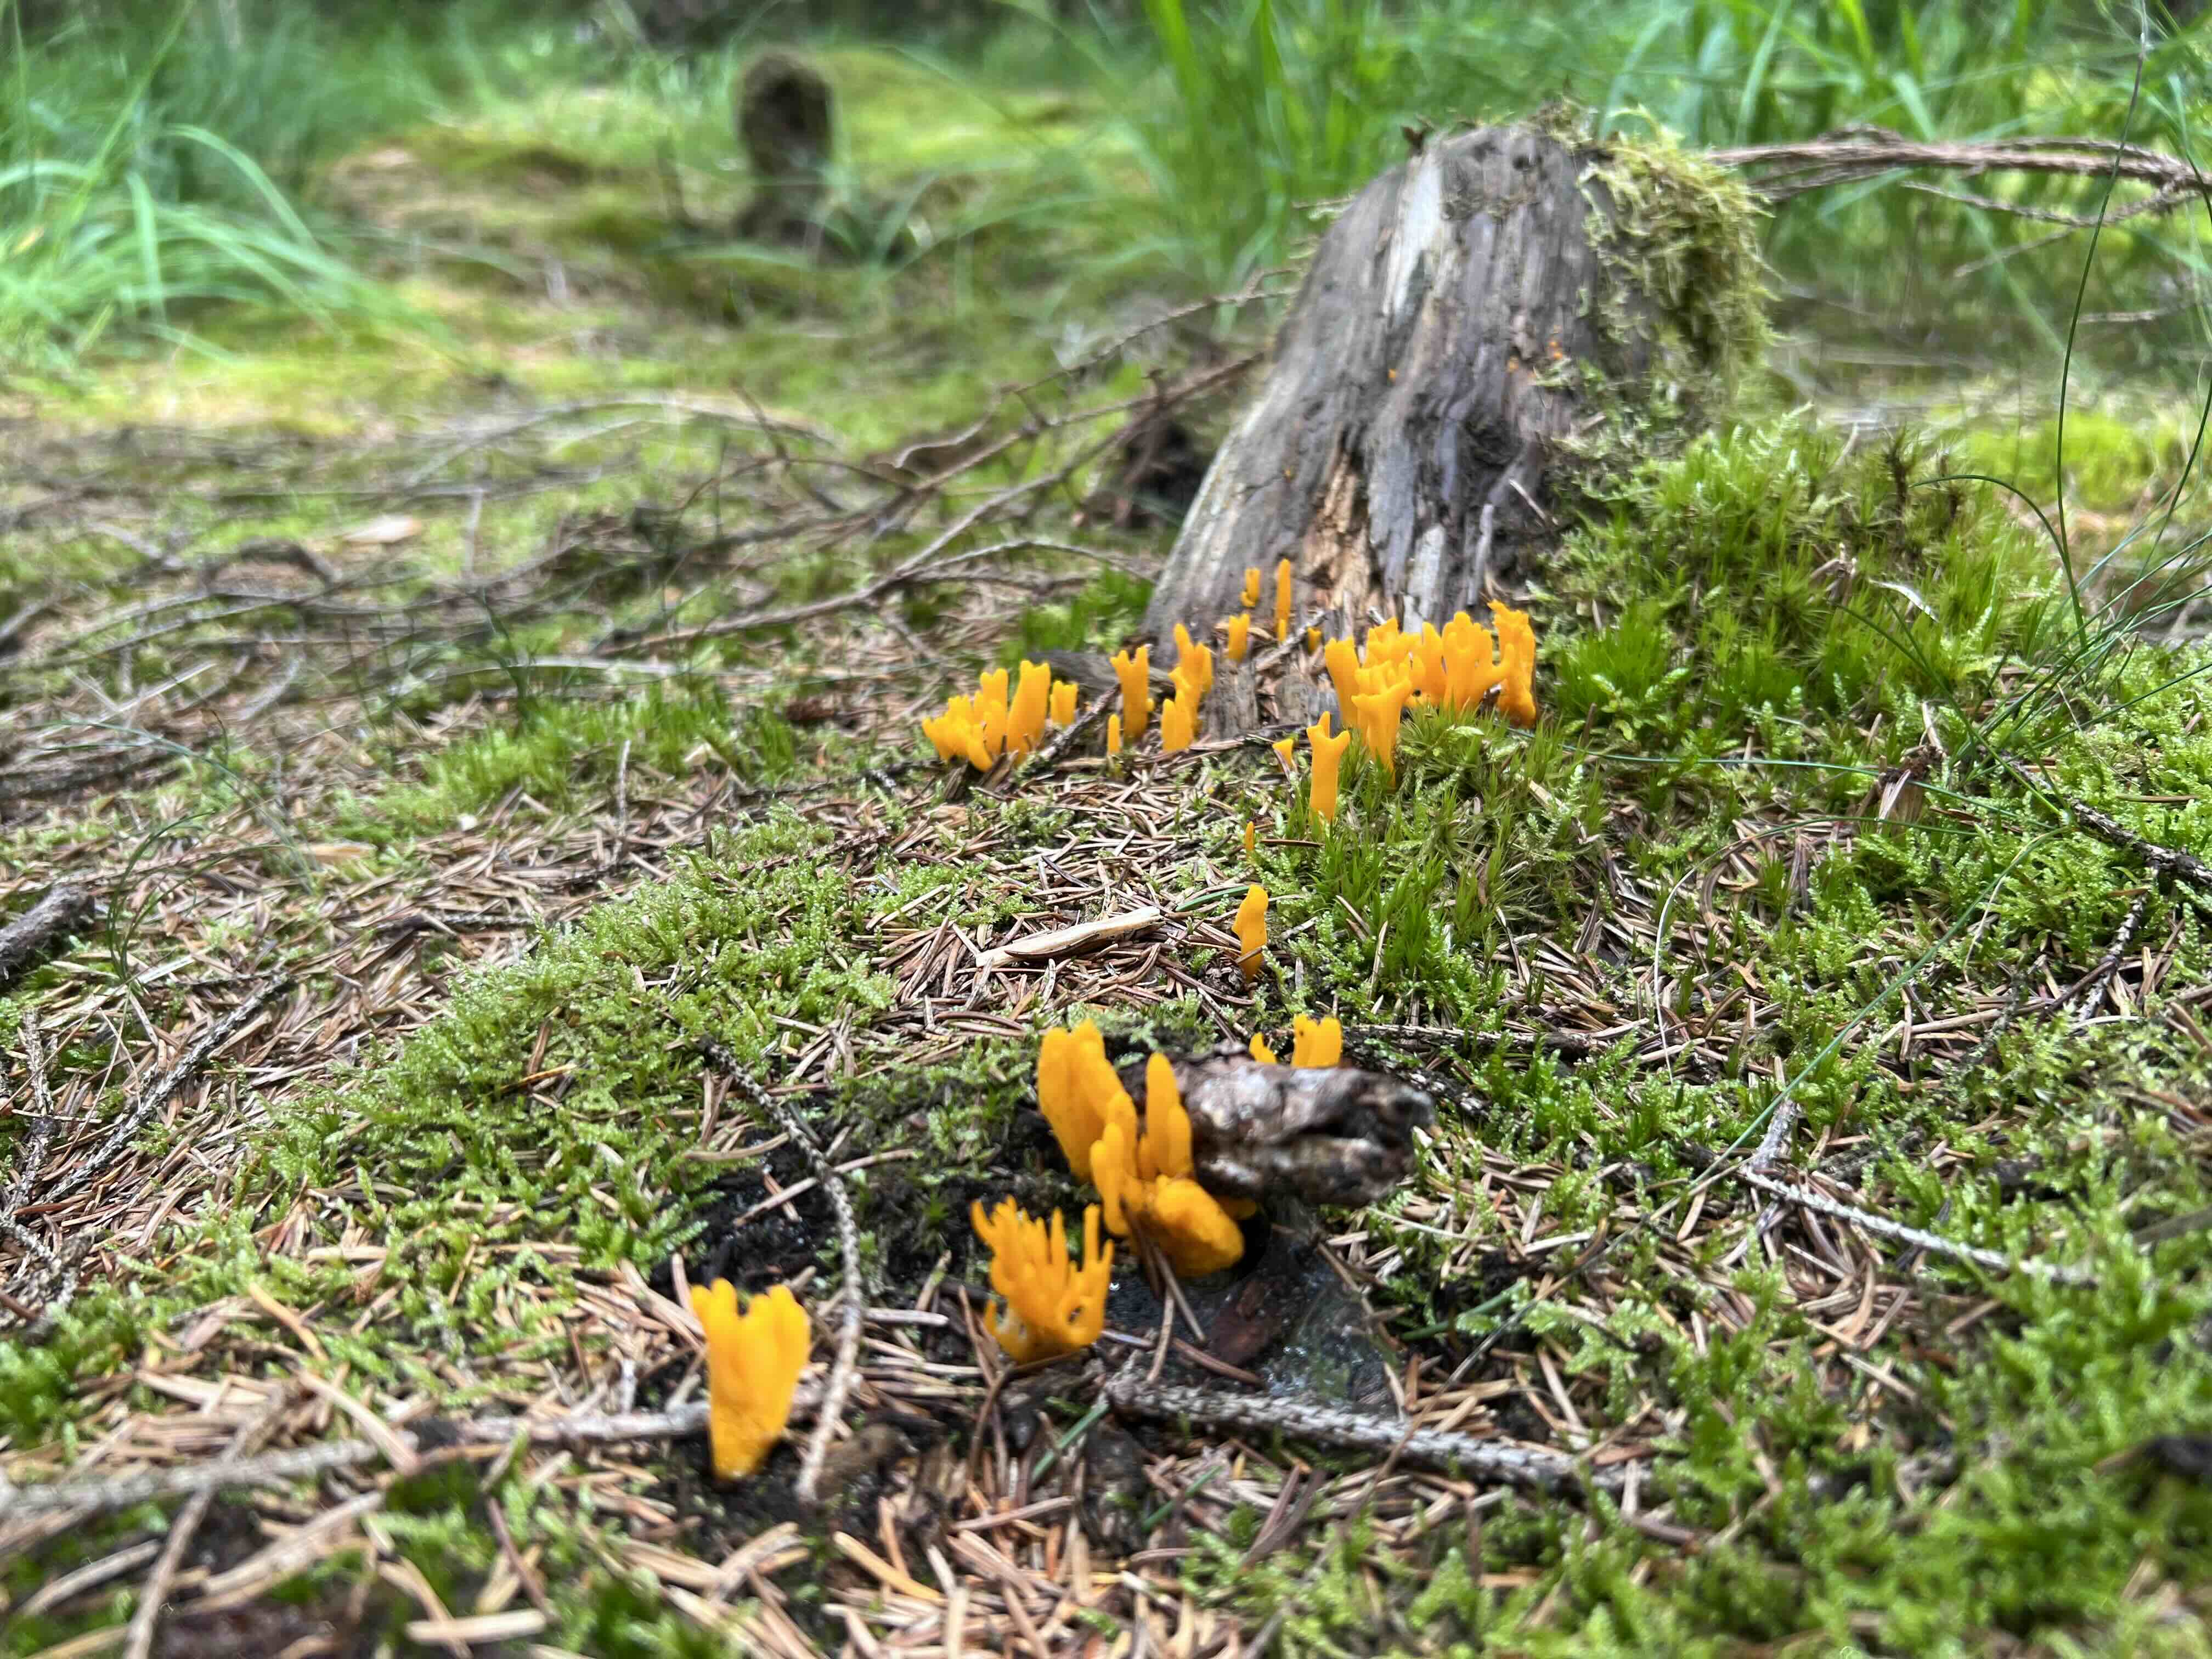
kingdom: Fungi
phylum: Basidiomycota
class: Dacrymycetes
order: Dacrymycetales
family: Dacrymycetaceae
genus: Calocera
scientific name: Calocera viscosa
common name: almindelig guldgaffel
